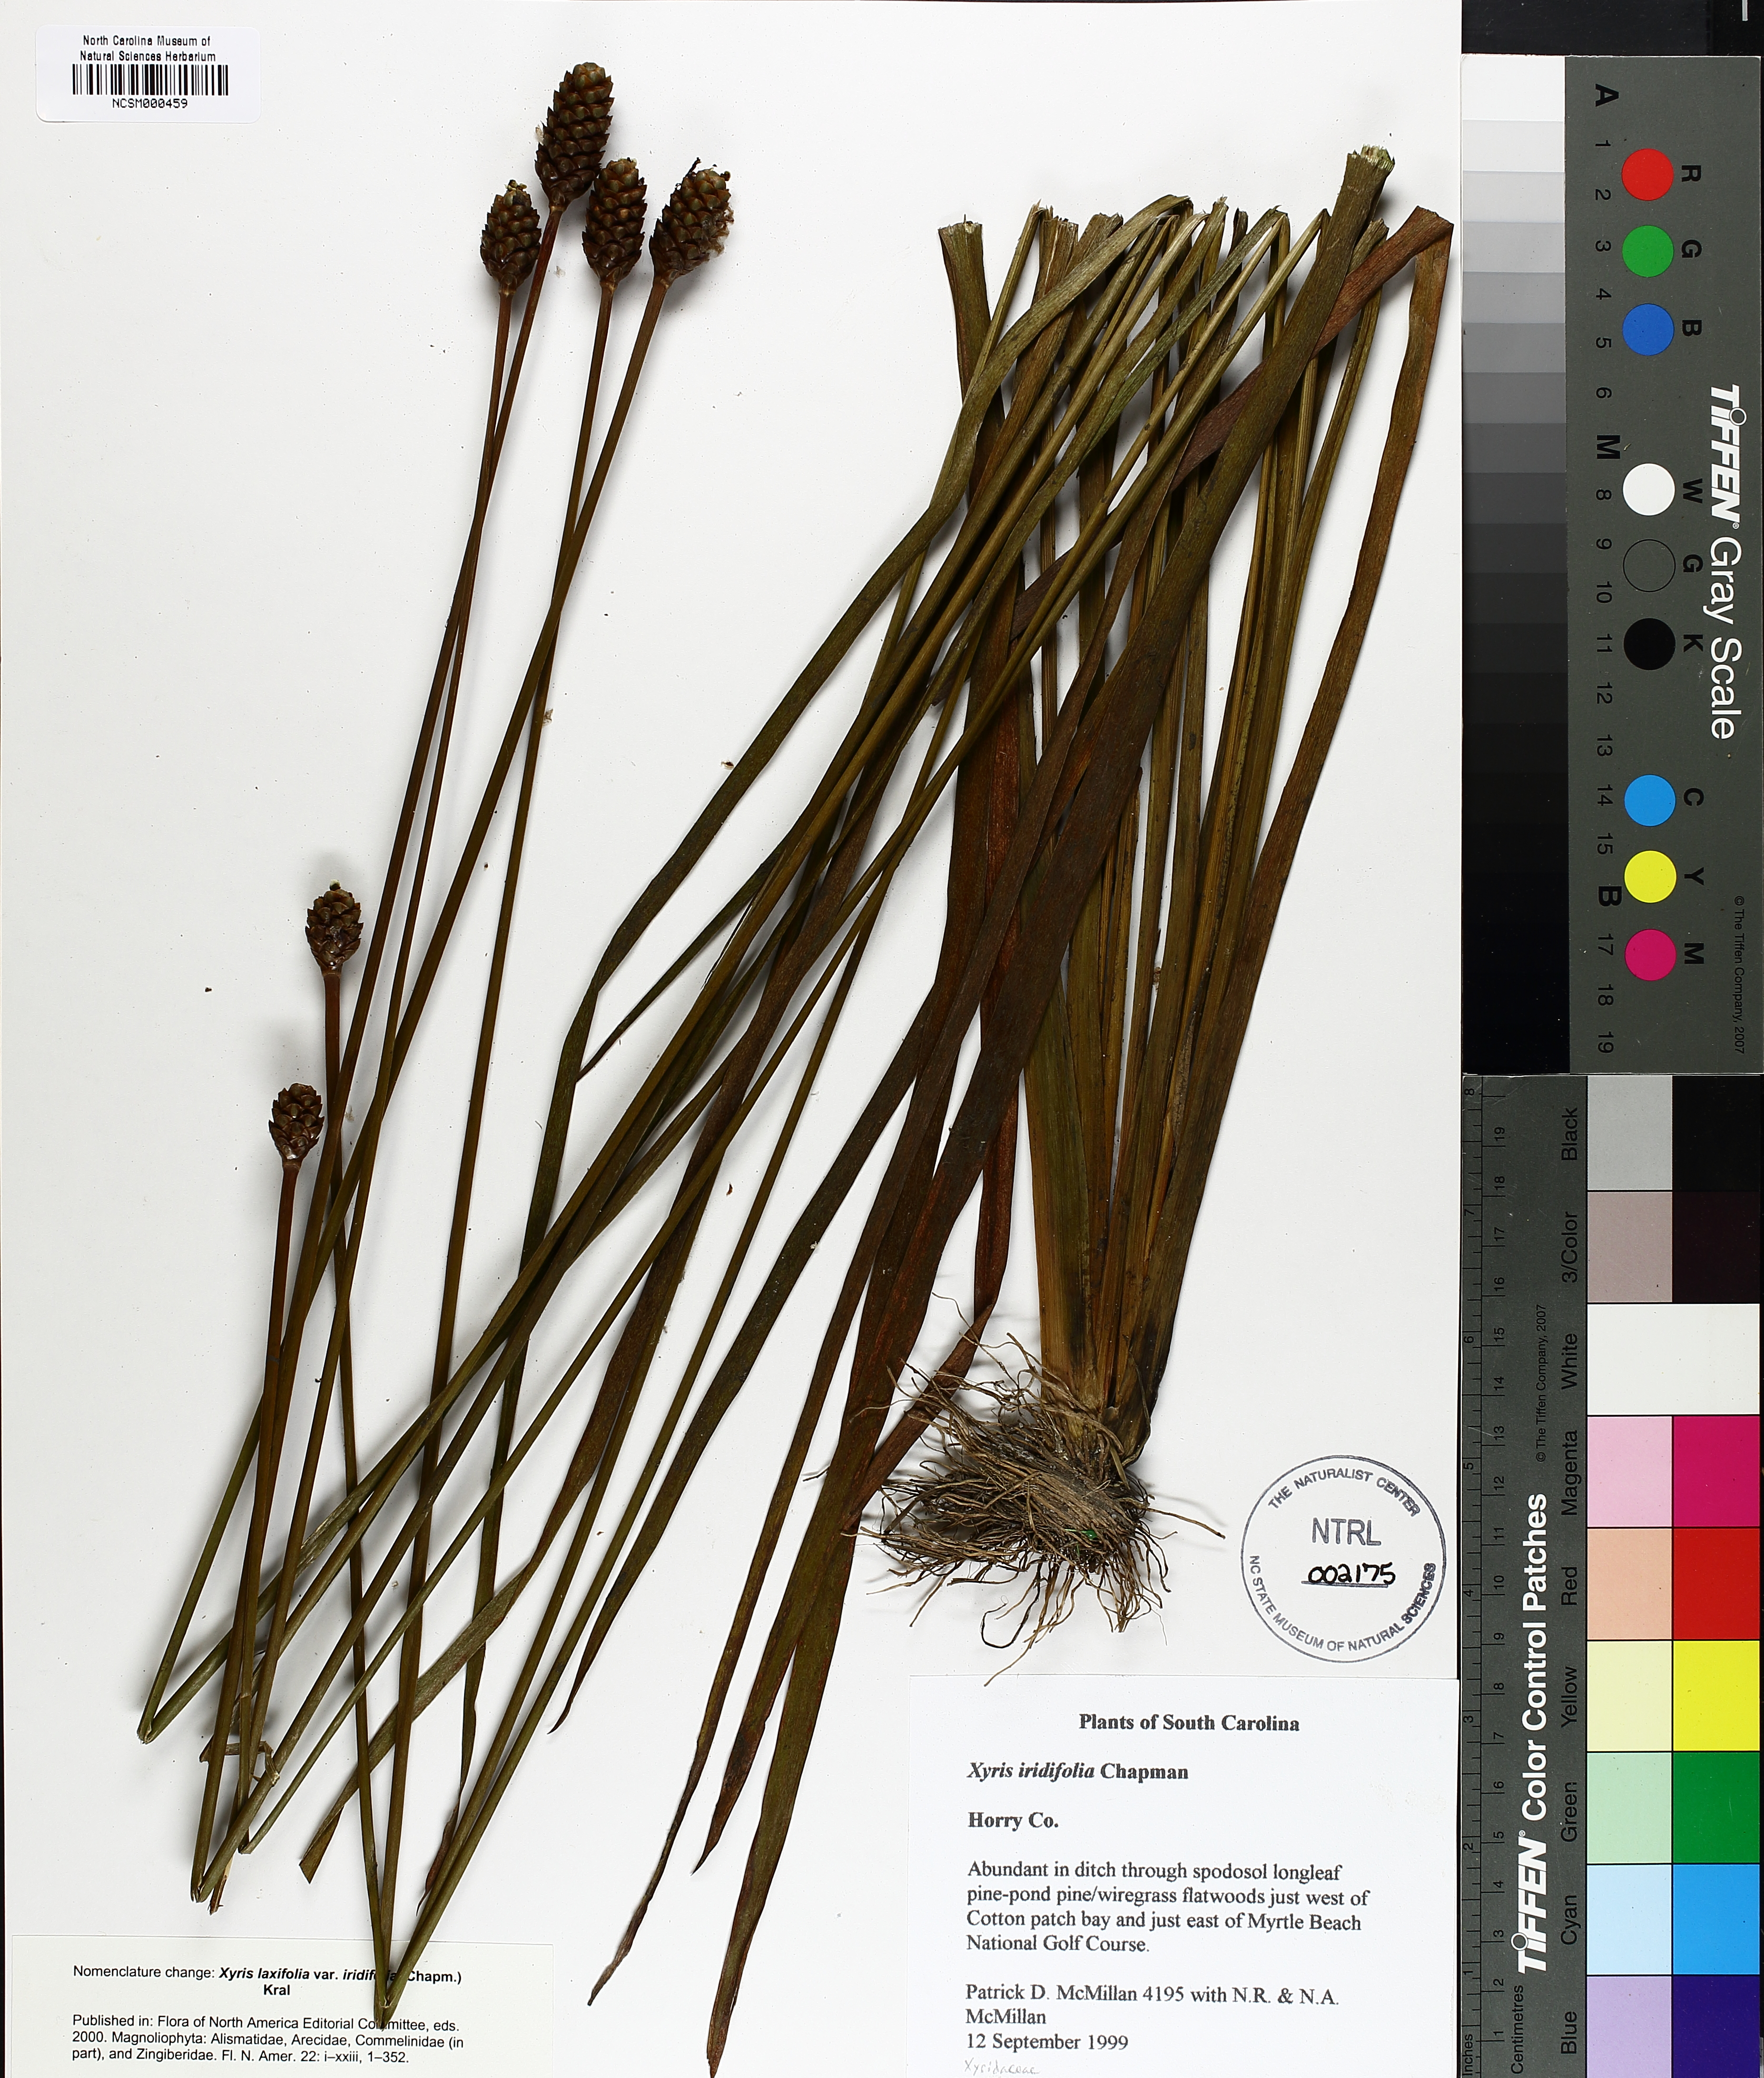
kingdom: Plantae
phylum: Tracheophyta
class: Liliopsida
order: Poales
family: Xyridaceae
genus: Xyris
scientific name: Xyris laxifolia
